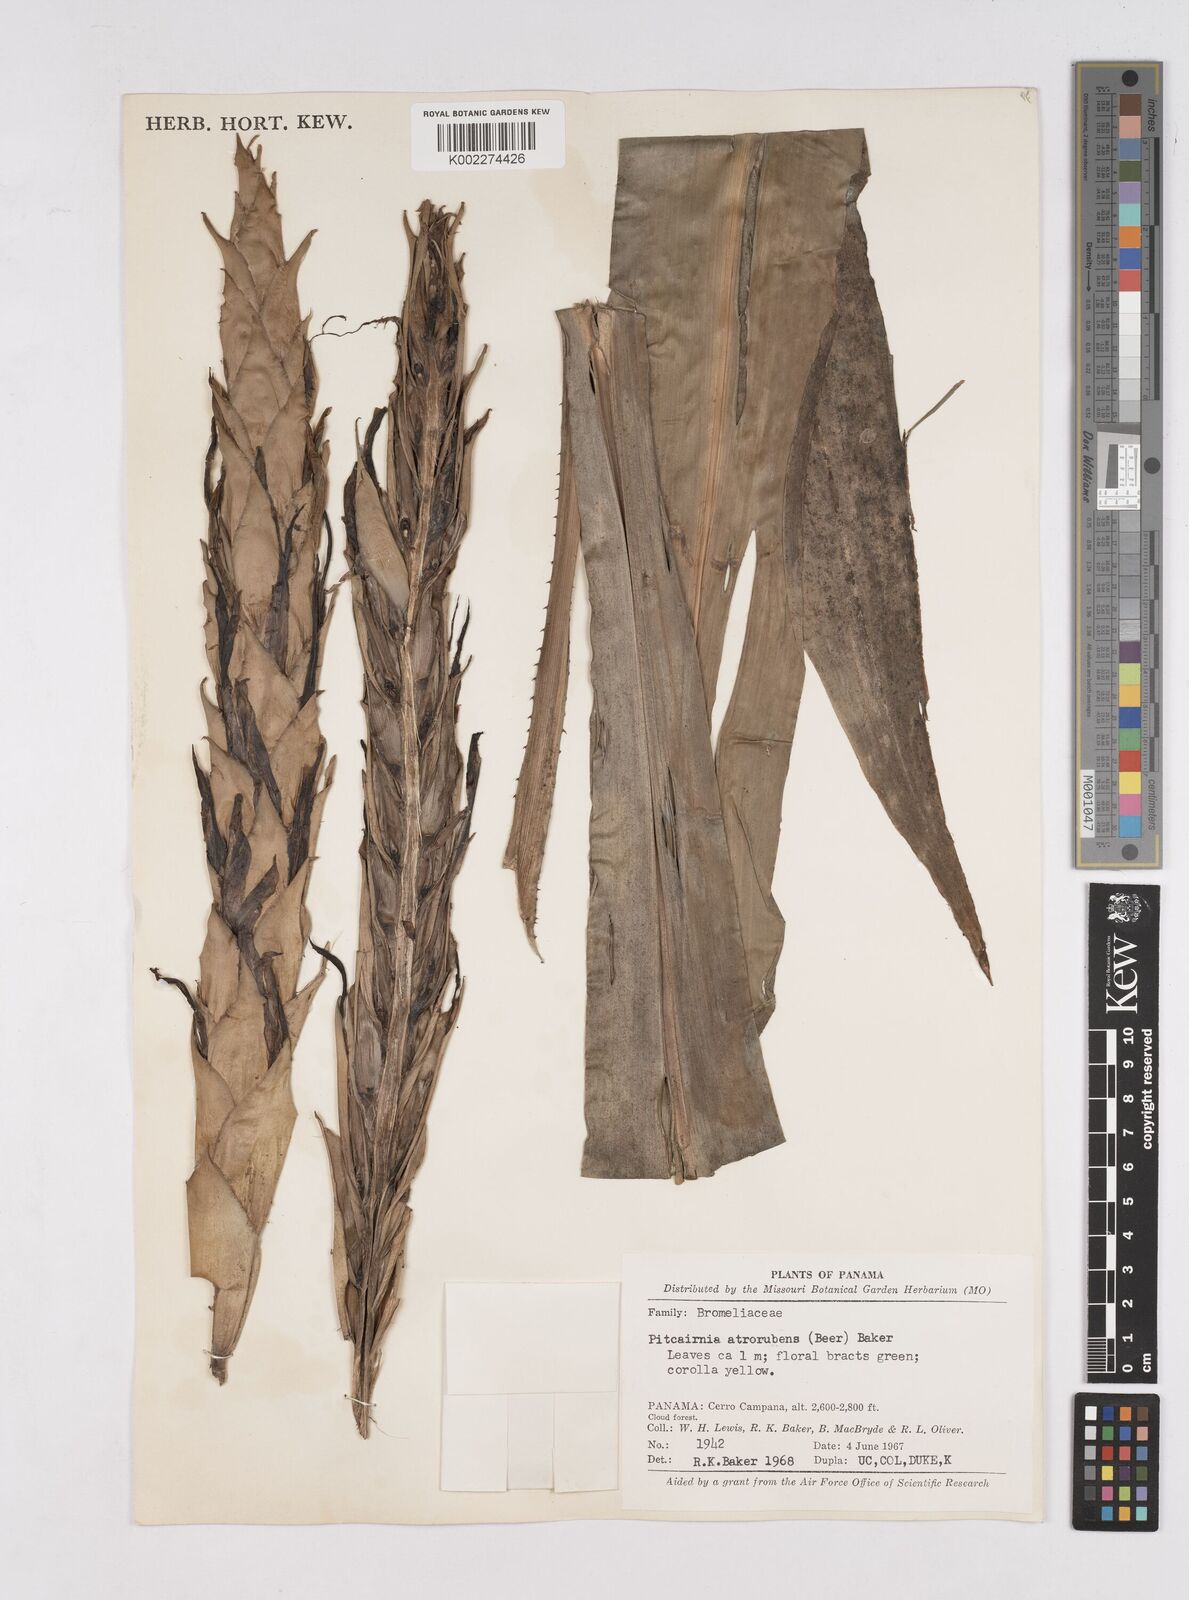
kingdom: Plantae
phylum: Tracheophyta
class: Liliopsida
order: Poales
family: Bromeliaceae
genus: Pitcairnia
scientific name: Pitcairnia atrorubens
